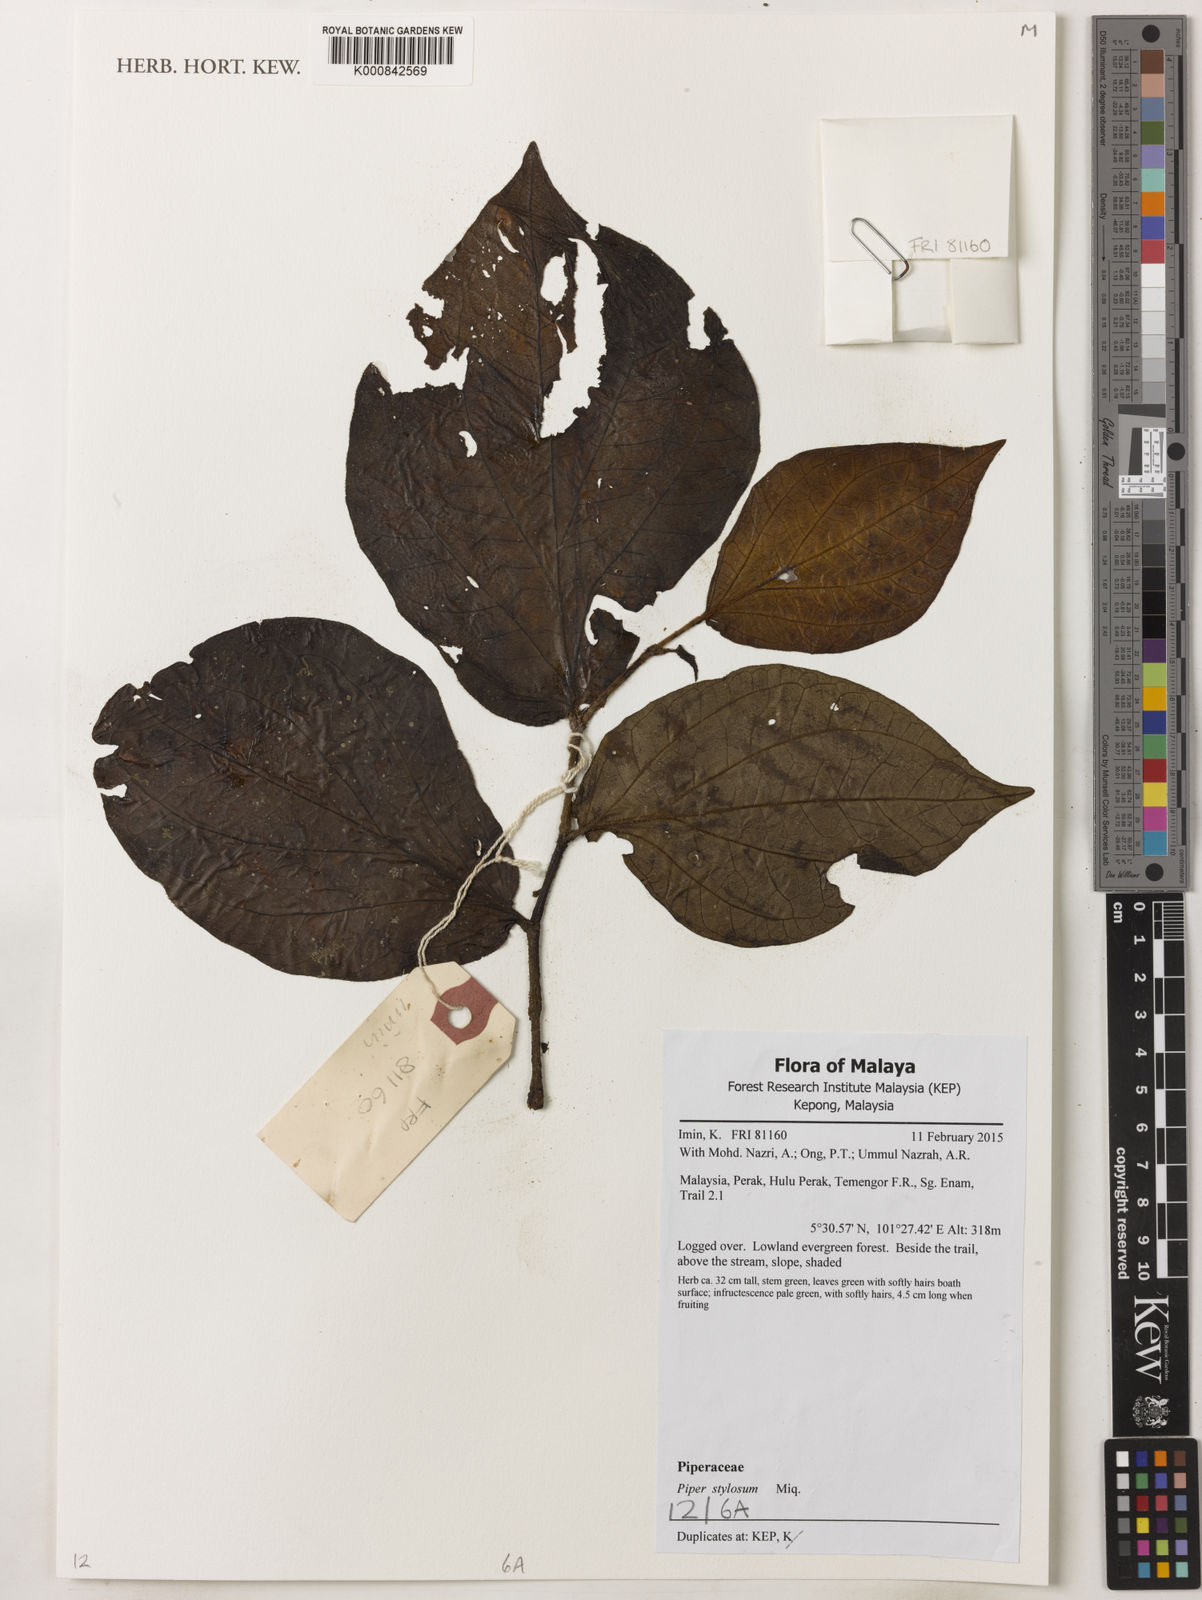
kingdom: Plantae
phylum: Tracheophyta
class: Magnoliopsida
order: Piperales
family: Piperaceae
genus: Piper
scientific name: Piper rostratum
